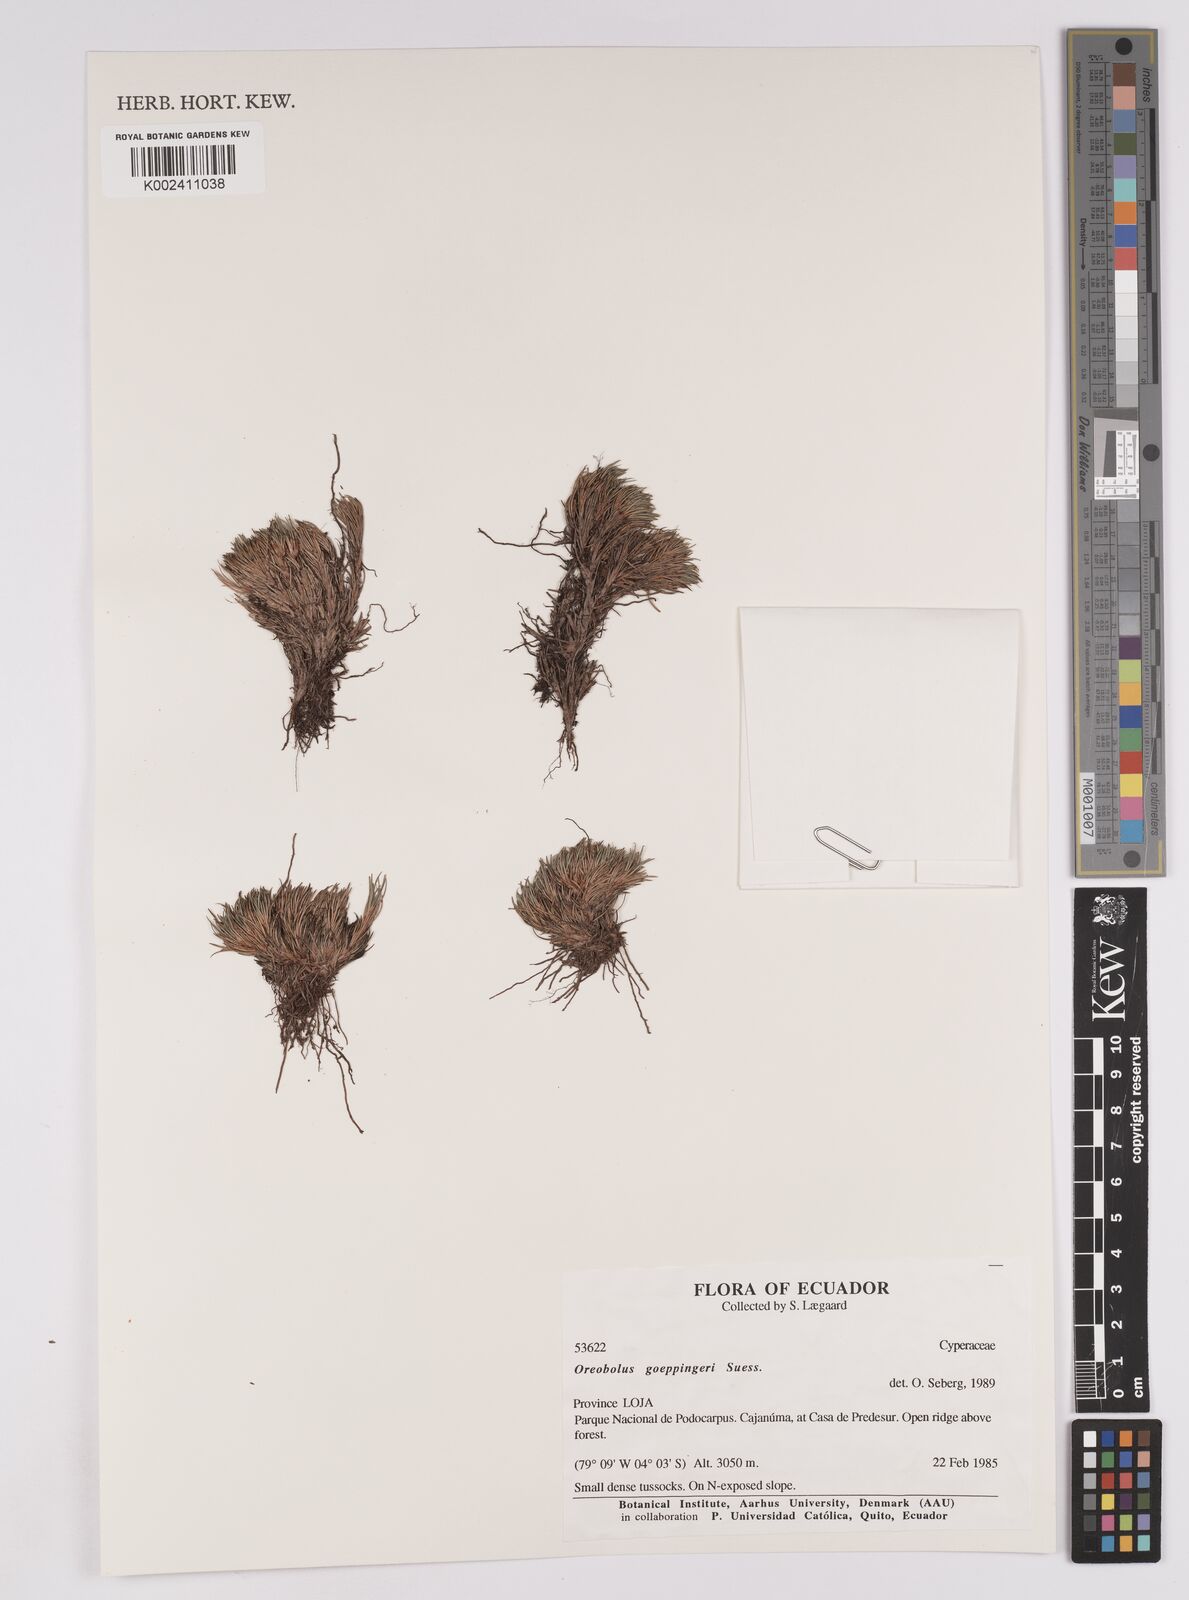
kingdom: Plantae
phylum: Tracheophyta
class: Liliopsida
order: Poales
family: Cyperaceae
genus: Oreobolus
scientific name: Oreobolus goeppingeri
